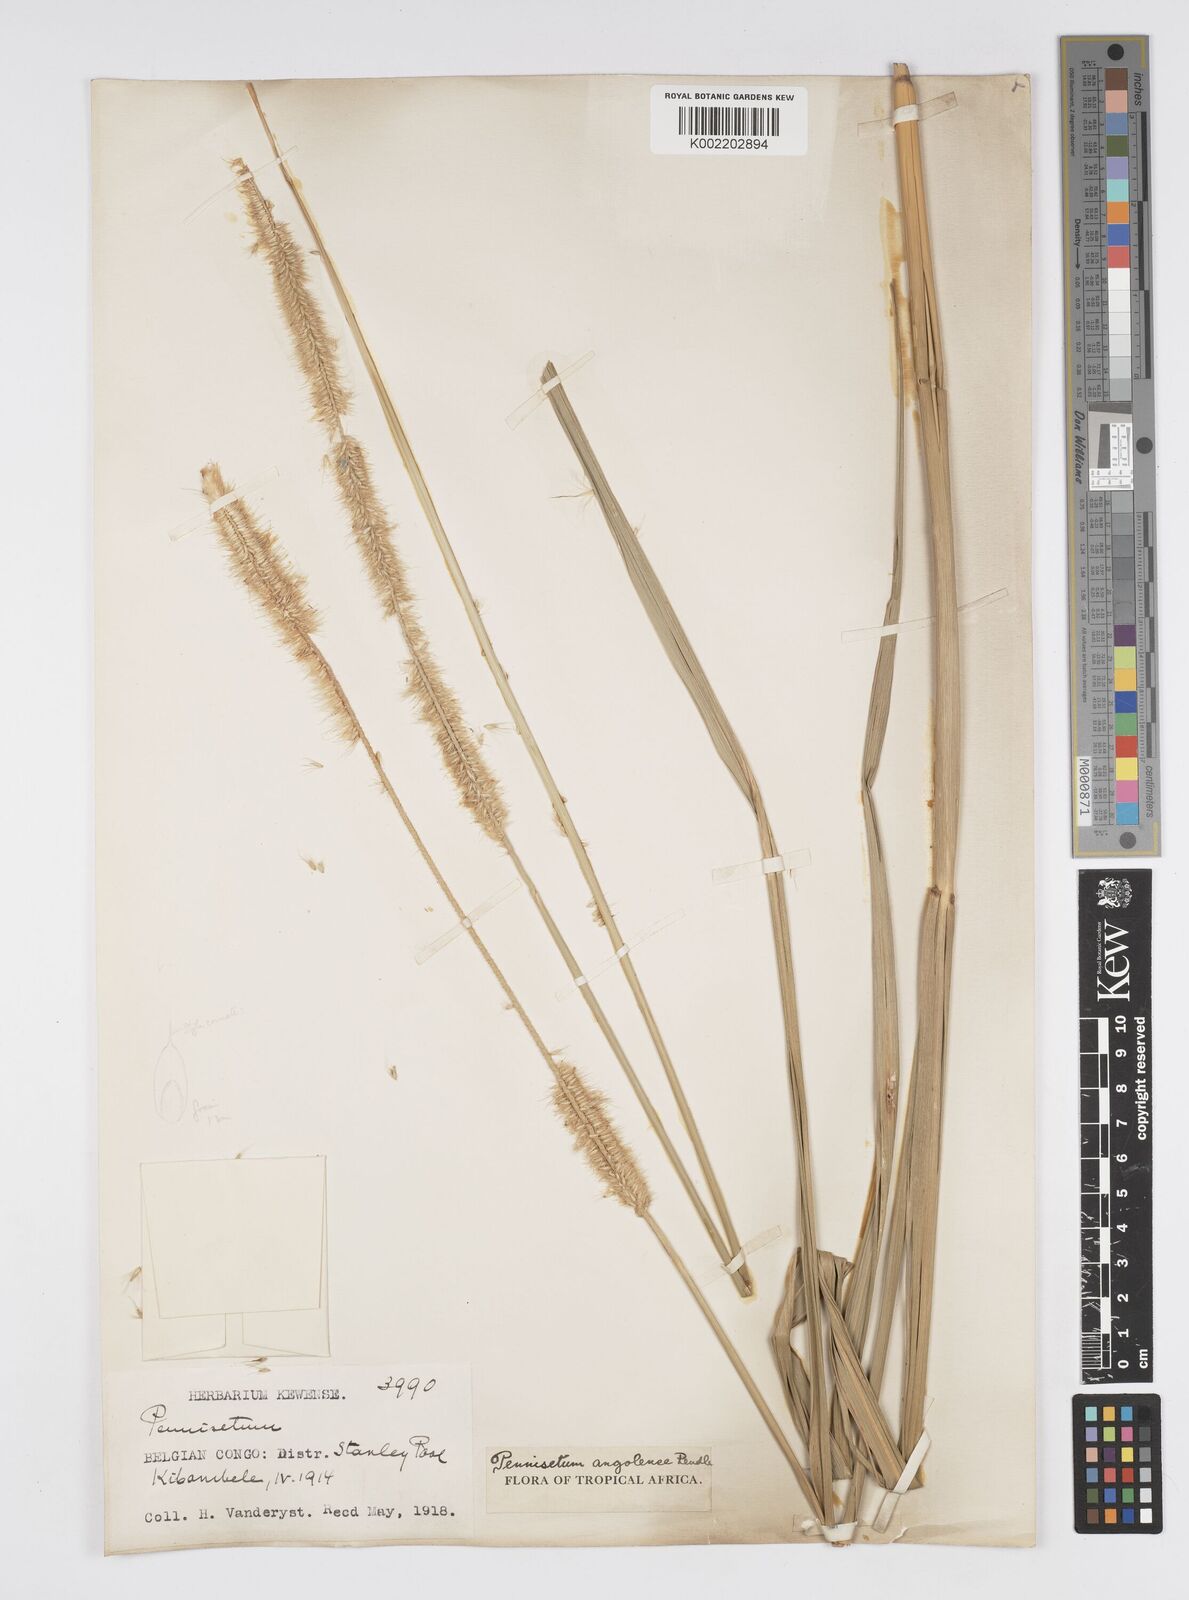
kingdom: Plantae
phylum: Tracheophyta
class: Liliopsida
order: Poales
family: Poaceae
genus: Cenchrus
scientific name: Cenchrus caudatus
